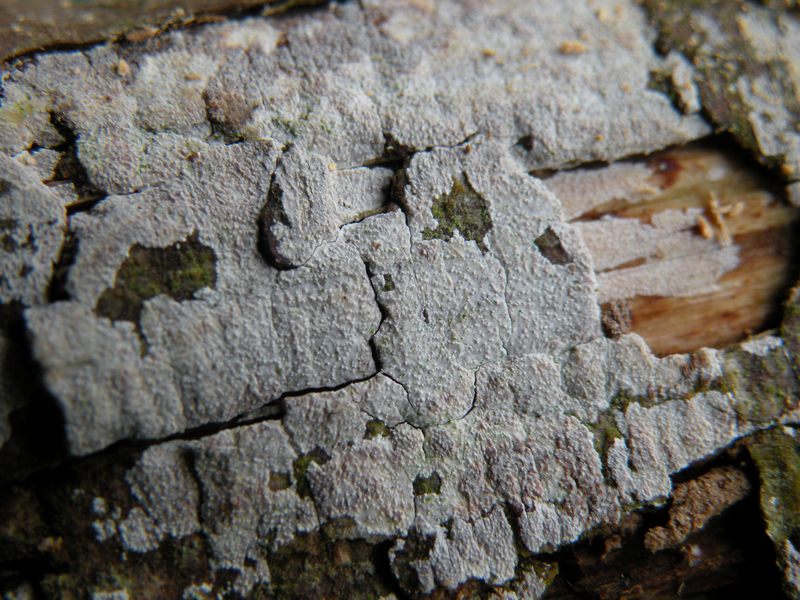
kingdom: Fungi
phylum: Basidiomycota
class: Agaricomycetes
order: Hymenochaetales
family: Hyphodontiaceae
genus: Hyphodontia
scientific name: Hyphodontia arguta
